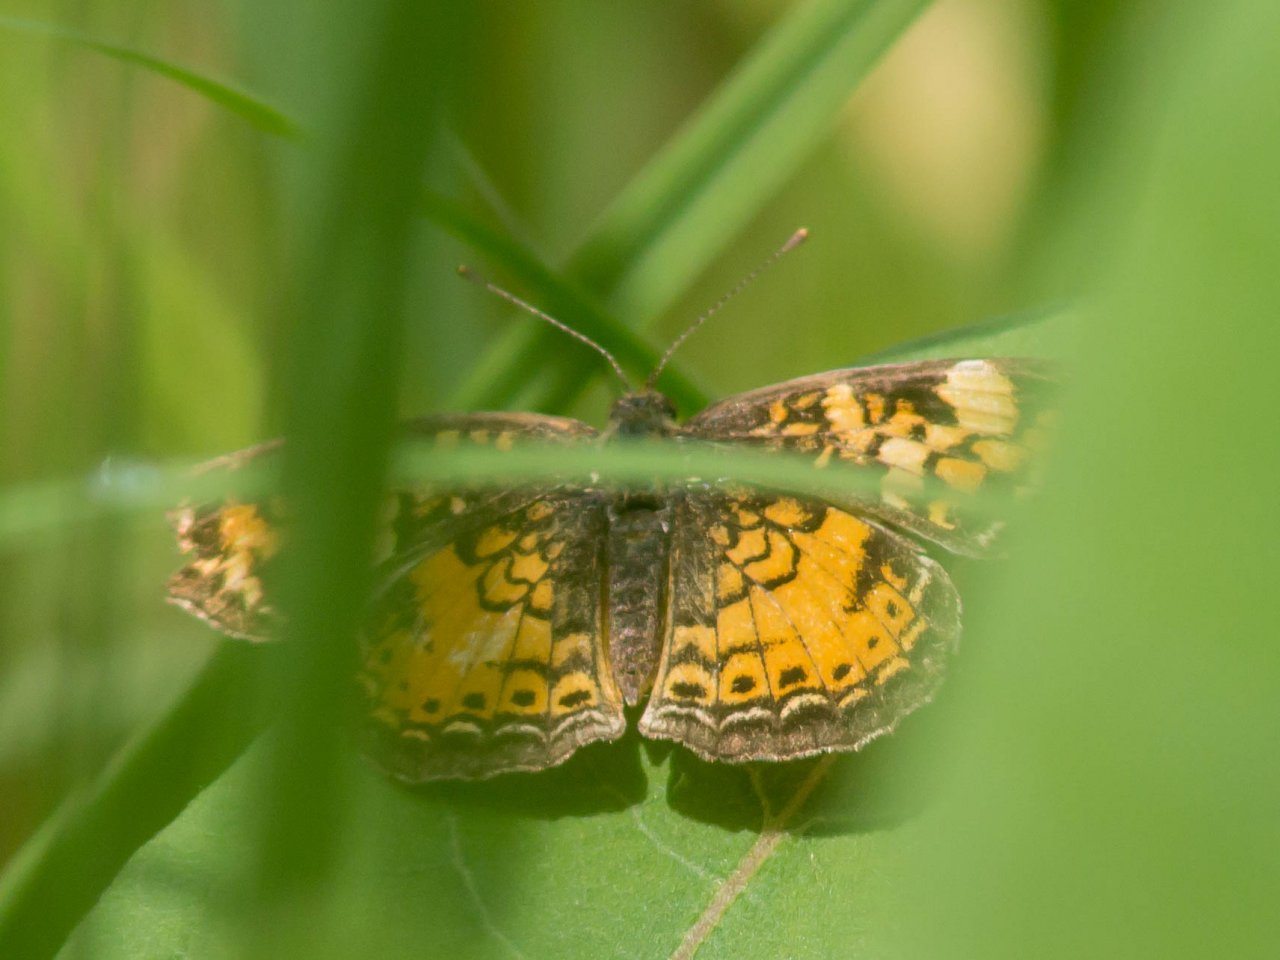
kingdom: Animalia
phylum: Arthropoda
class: Insecta
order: Lepidoptera
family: Nymphalidae
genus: Phyciodes
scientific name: Phyciodes tharos
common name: Pearl Crescent
